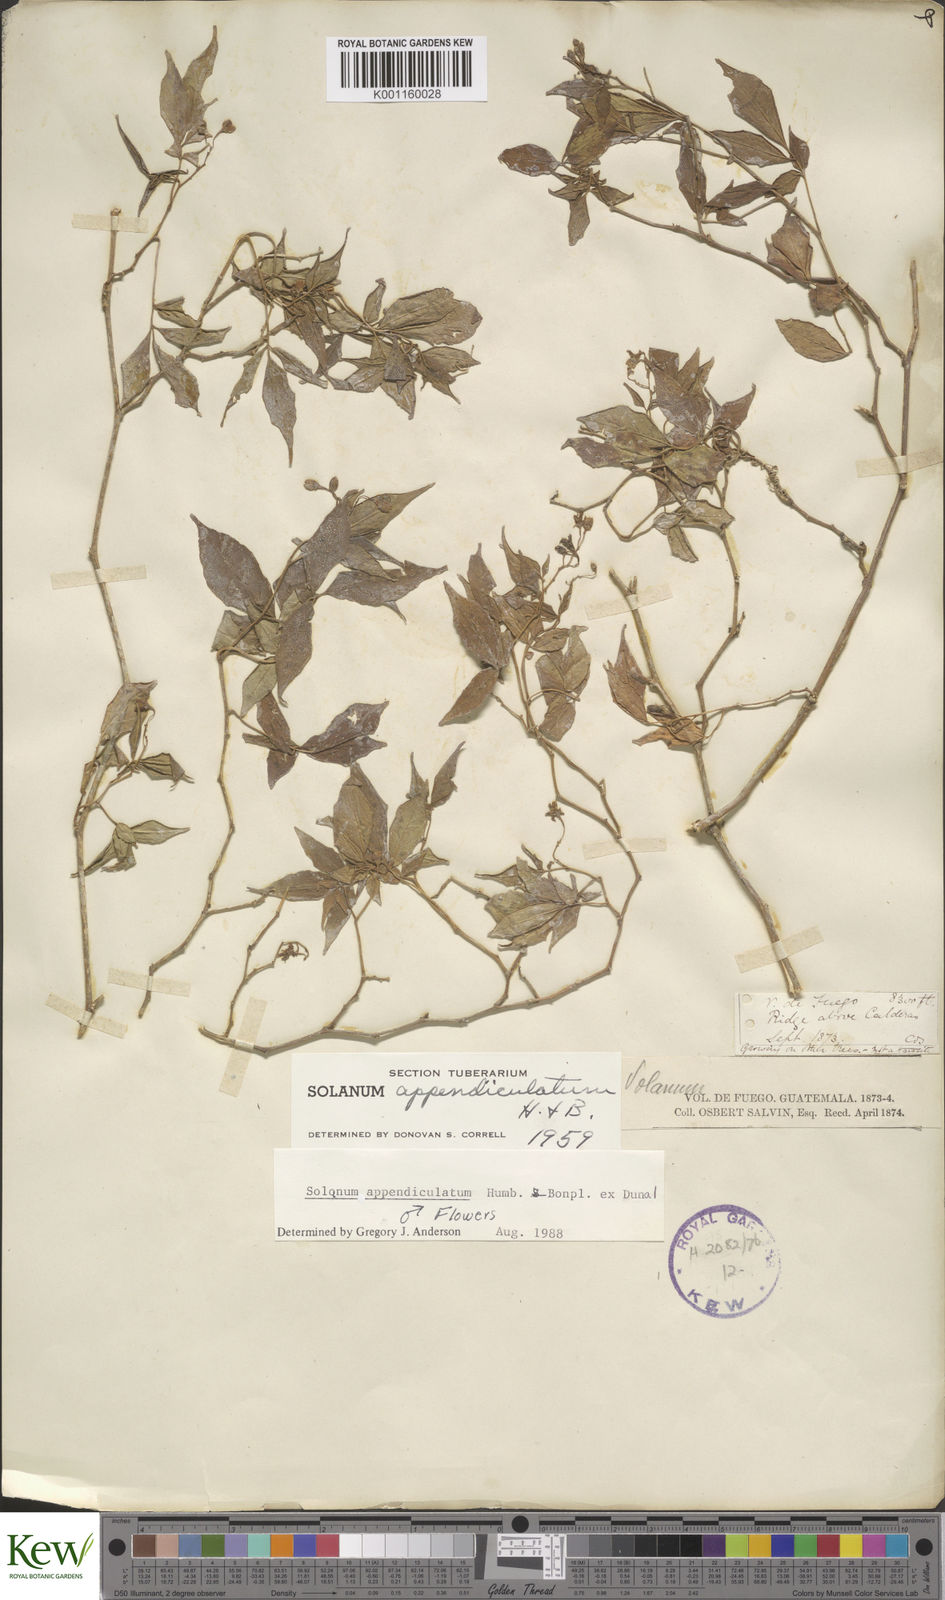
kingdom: Plantae
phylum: Tracheophyta
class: Magnoliopsida
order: Solanales
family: Solanaceae
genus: Solanum
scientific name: Solanum appendiculatum
